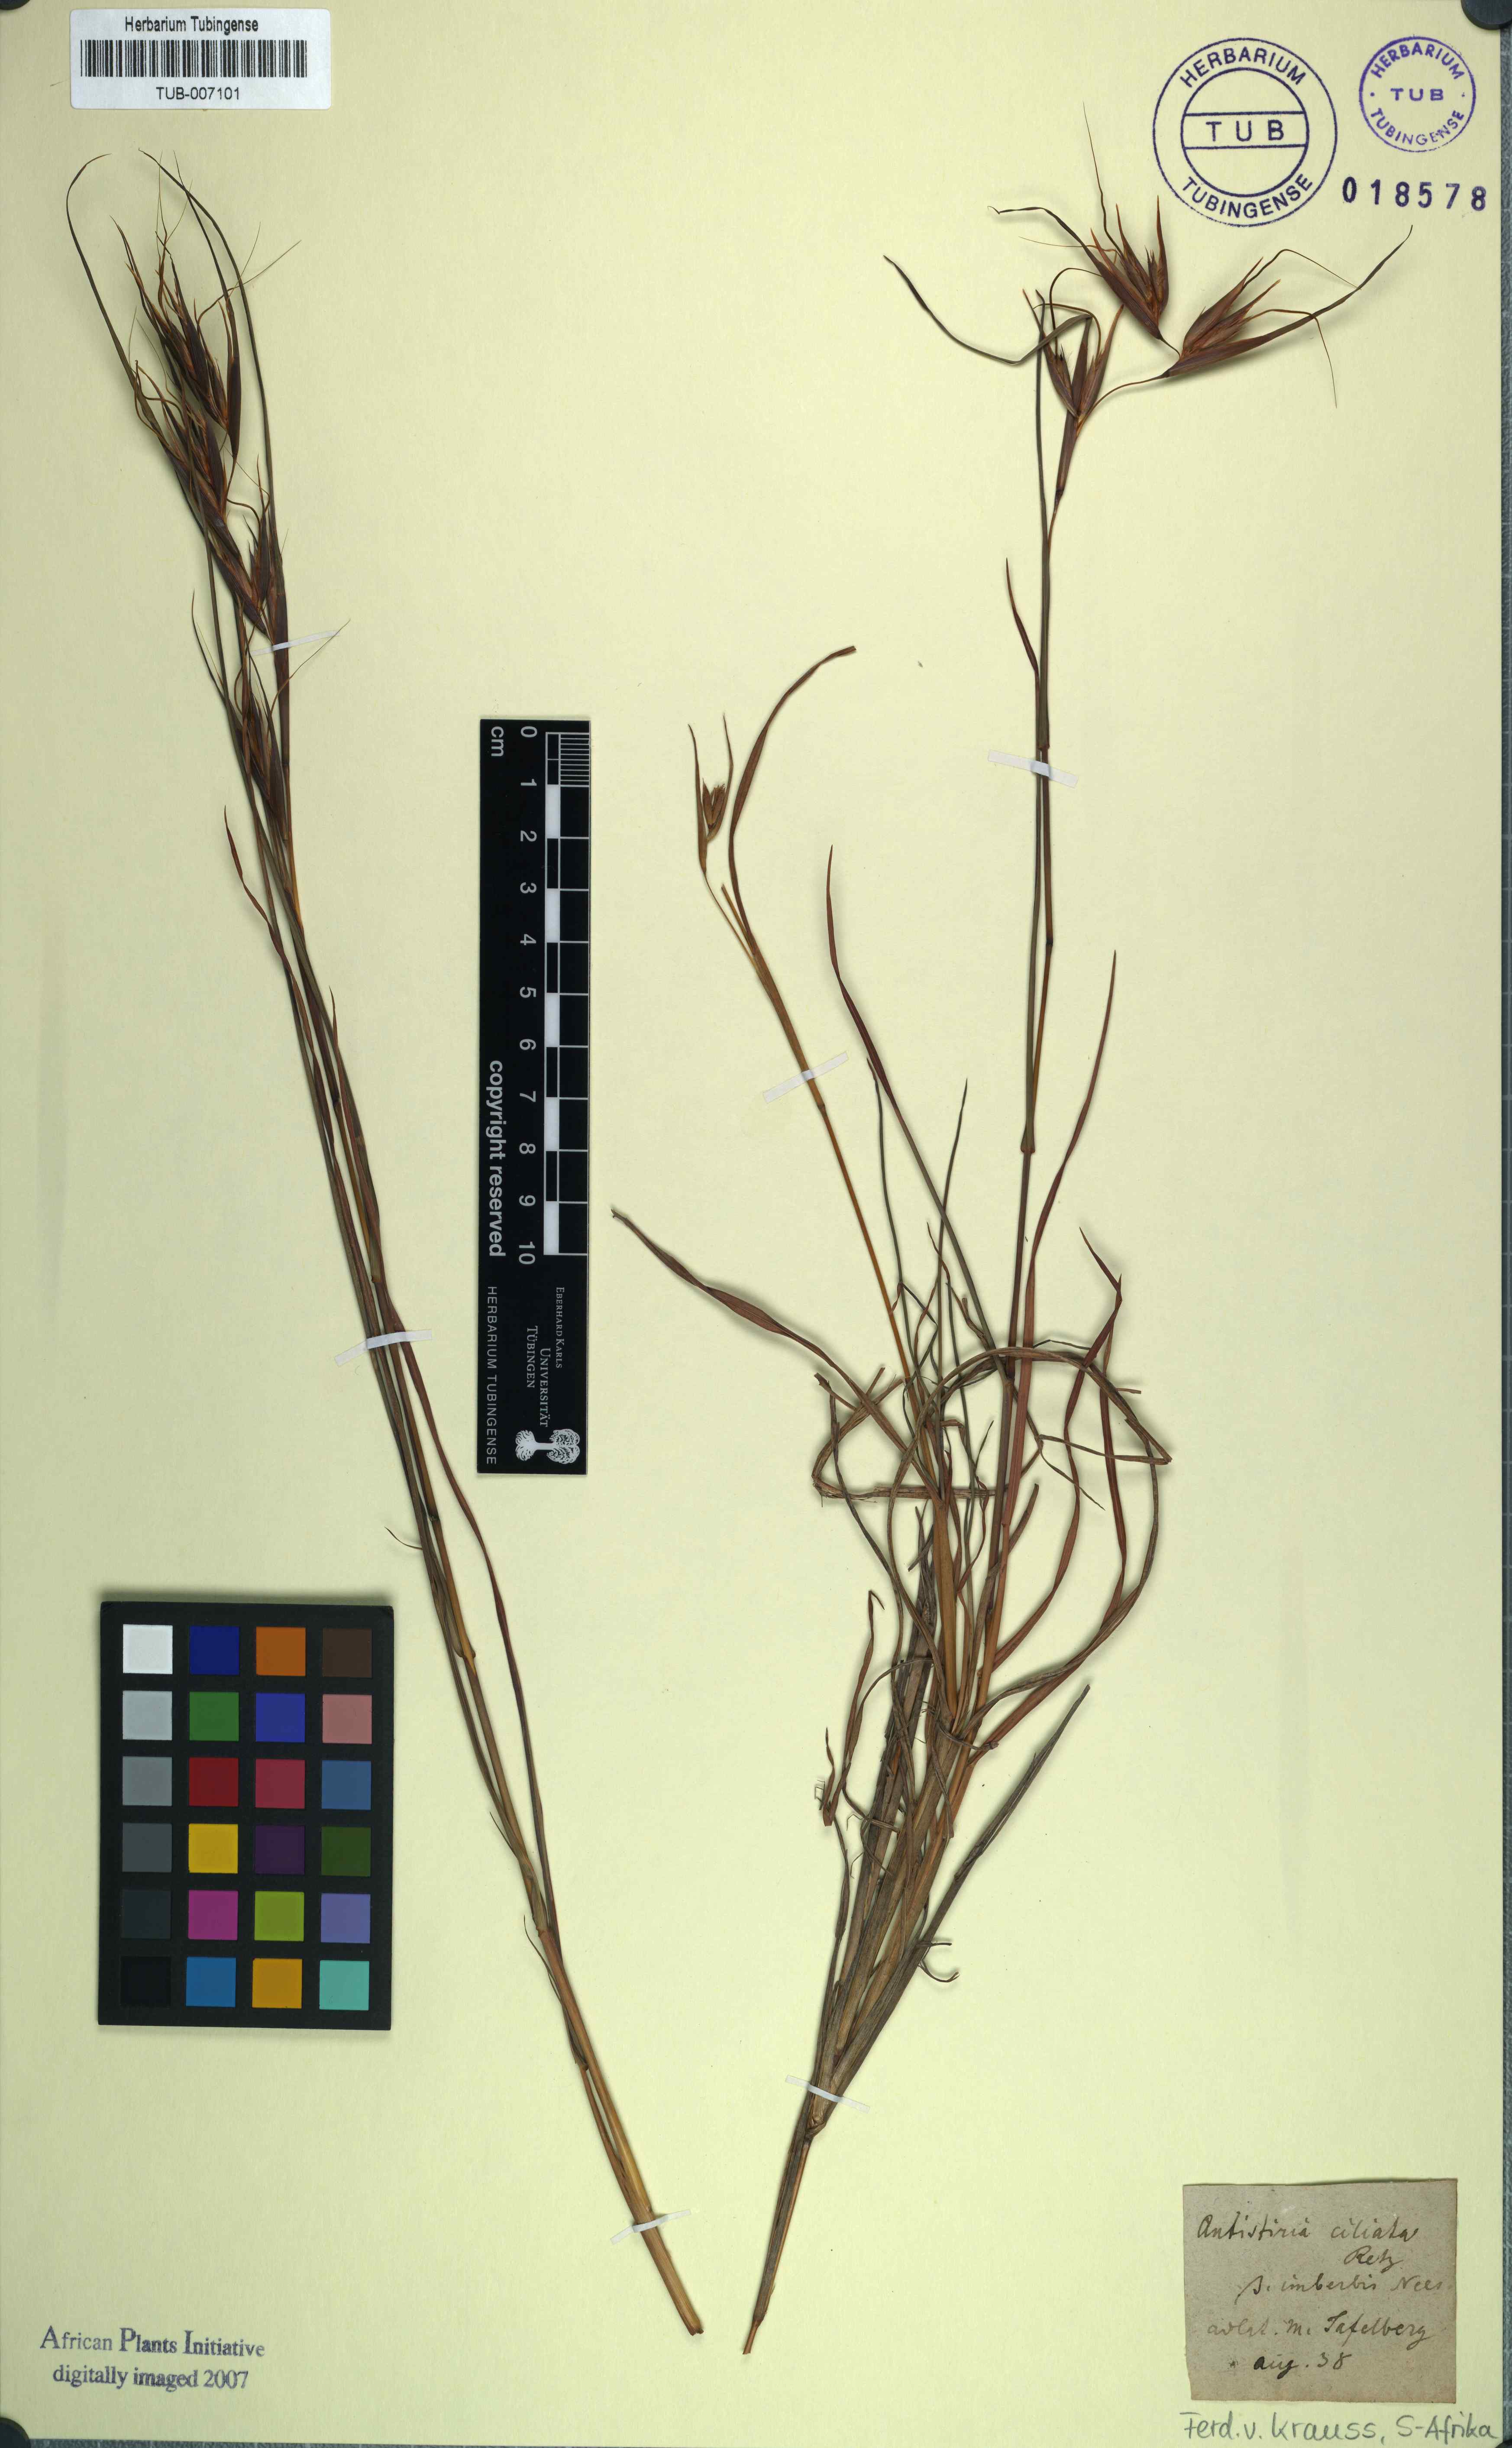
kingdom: Plantae
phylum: Tracheophyta
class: Liliopsida
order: Poales
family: Poaceae
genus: Themeda
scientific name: Themeda triandra
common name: Kangaroo grass
